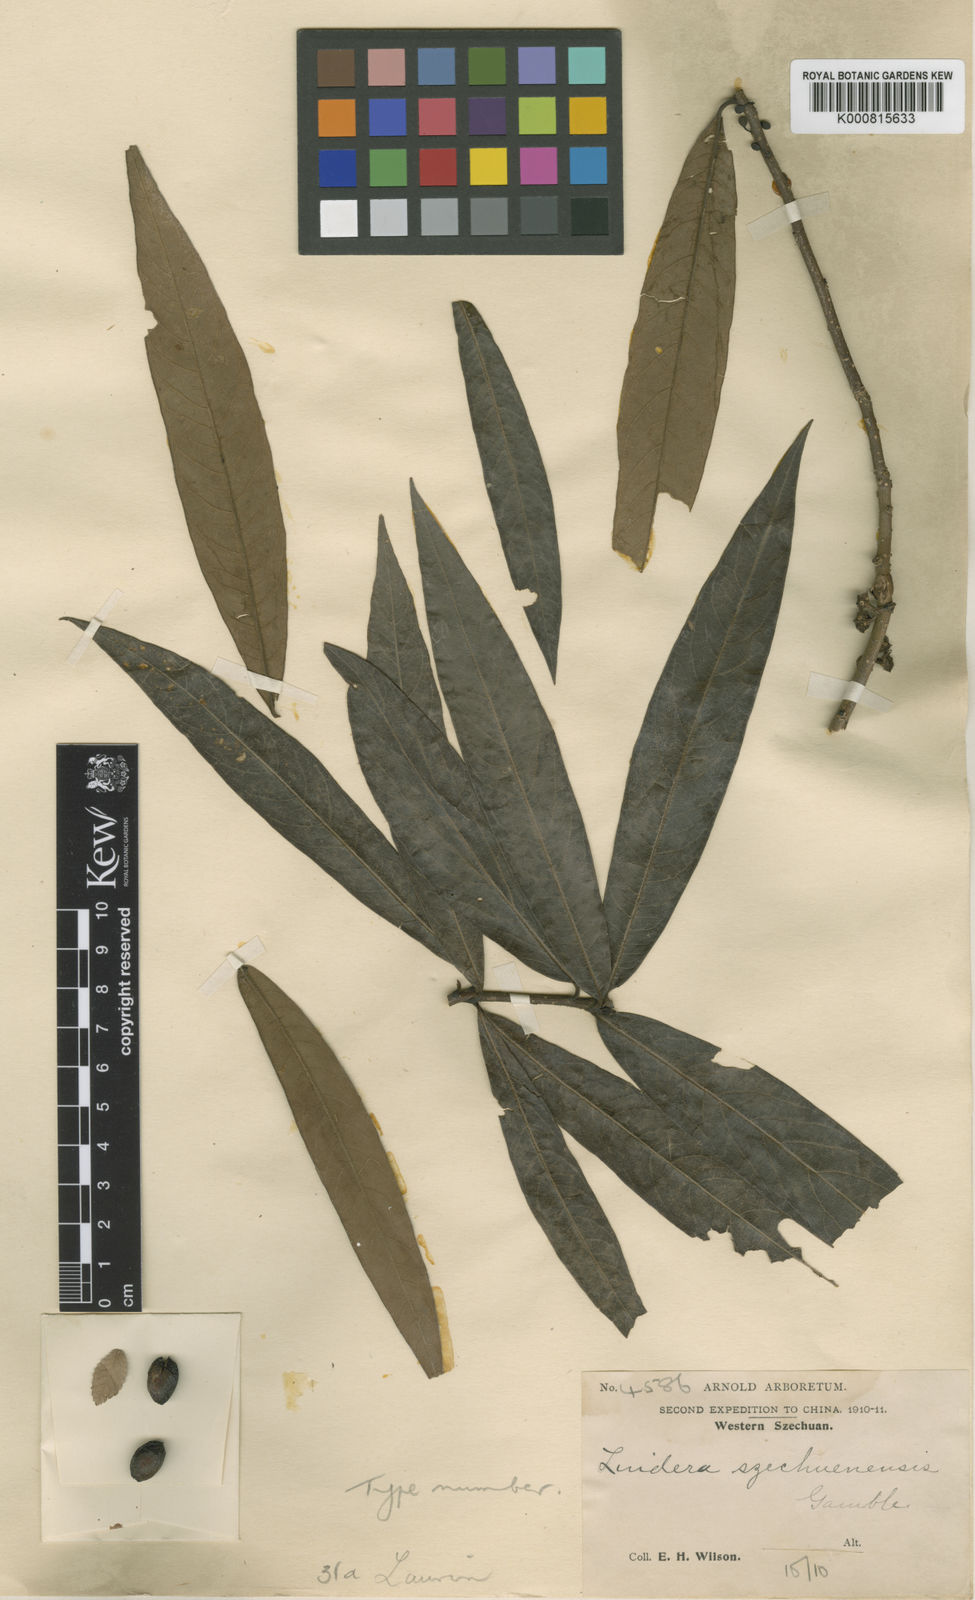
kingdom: Plantae
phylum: Tracheophyta
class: Magnoliopsida
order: Laurales
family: Lauraceae
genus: Lindera
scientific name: Lindera
